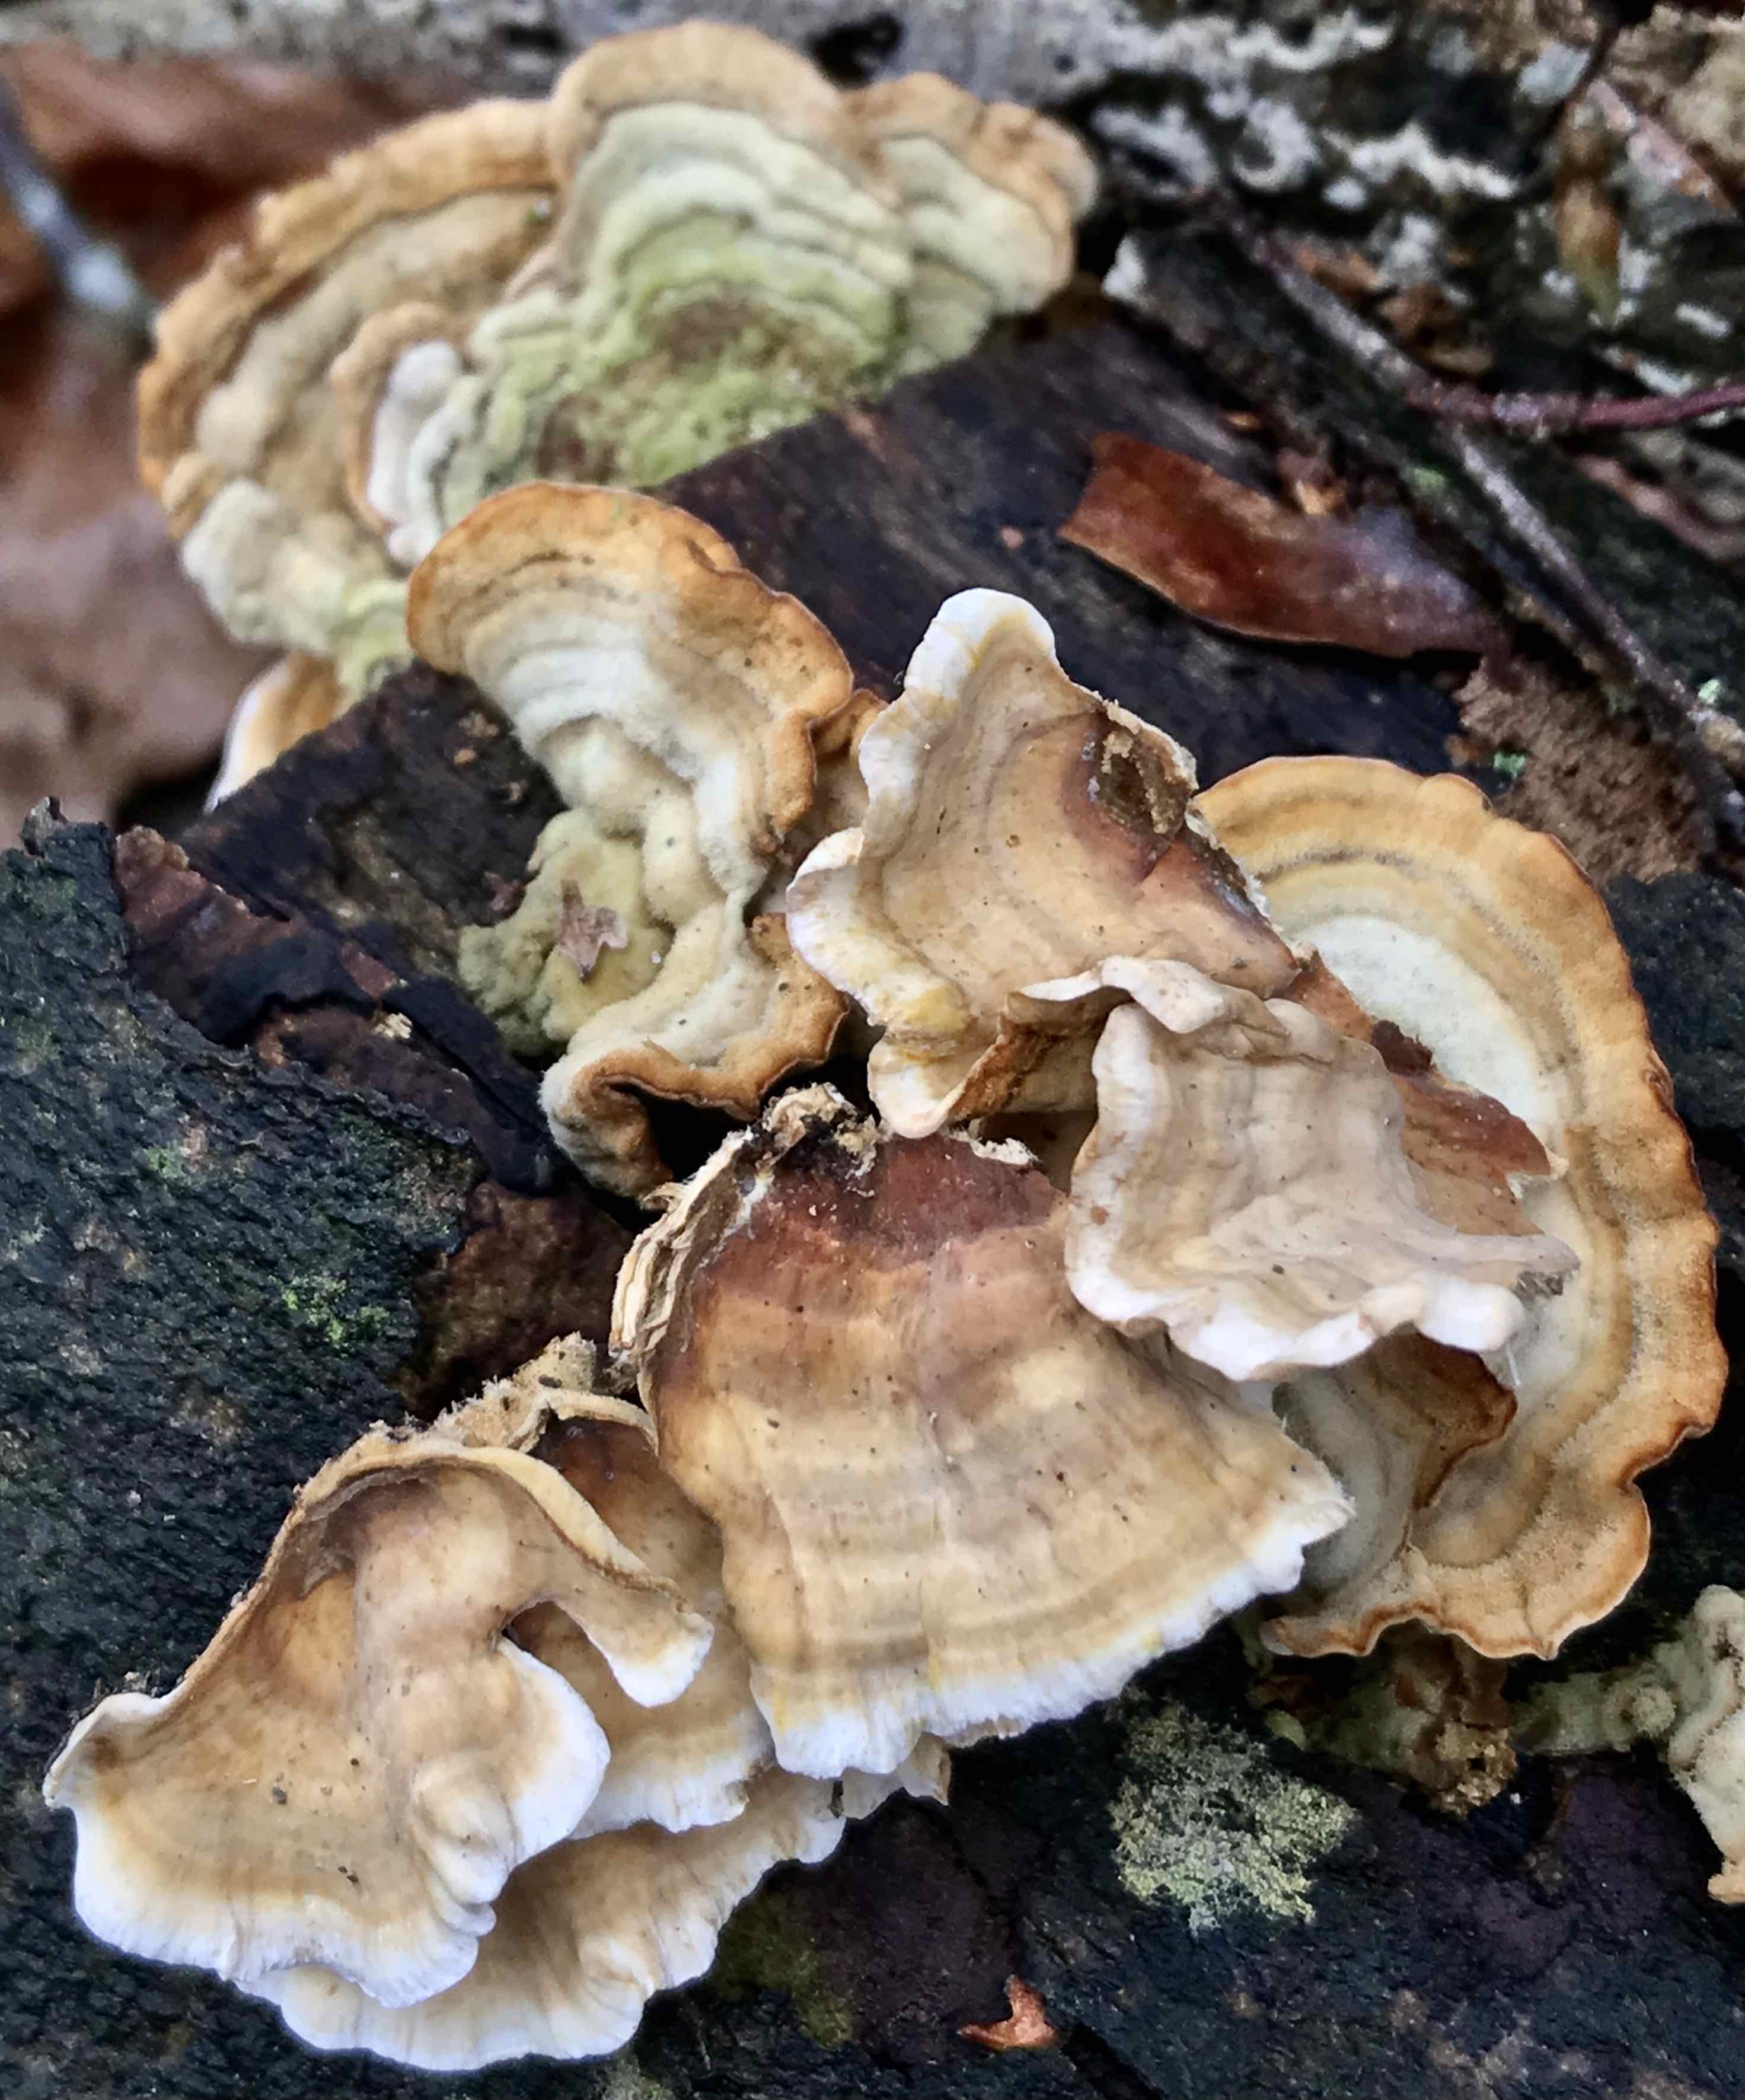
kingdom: Fungi
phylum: Basidiomycota
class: Agaricomycetes
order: Russulales
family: Stereaceae
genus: Stereum
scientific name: Stereum hirsutum
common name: håret lædersvamp
